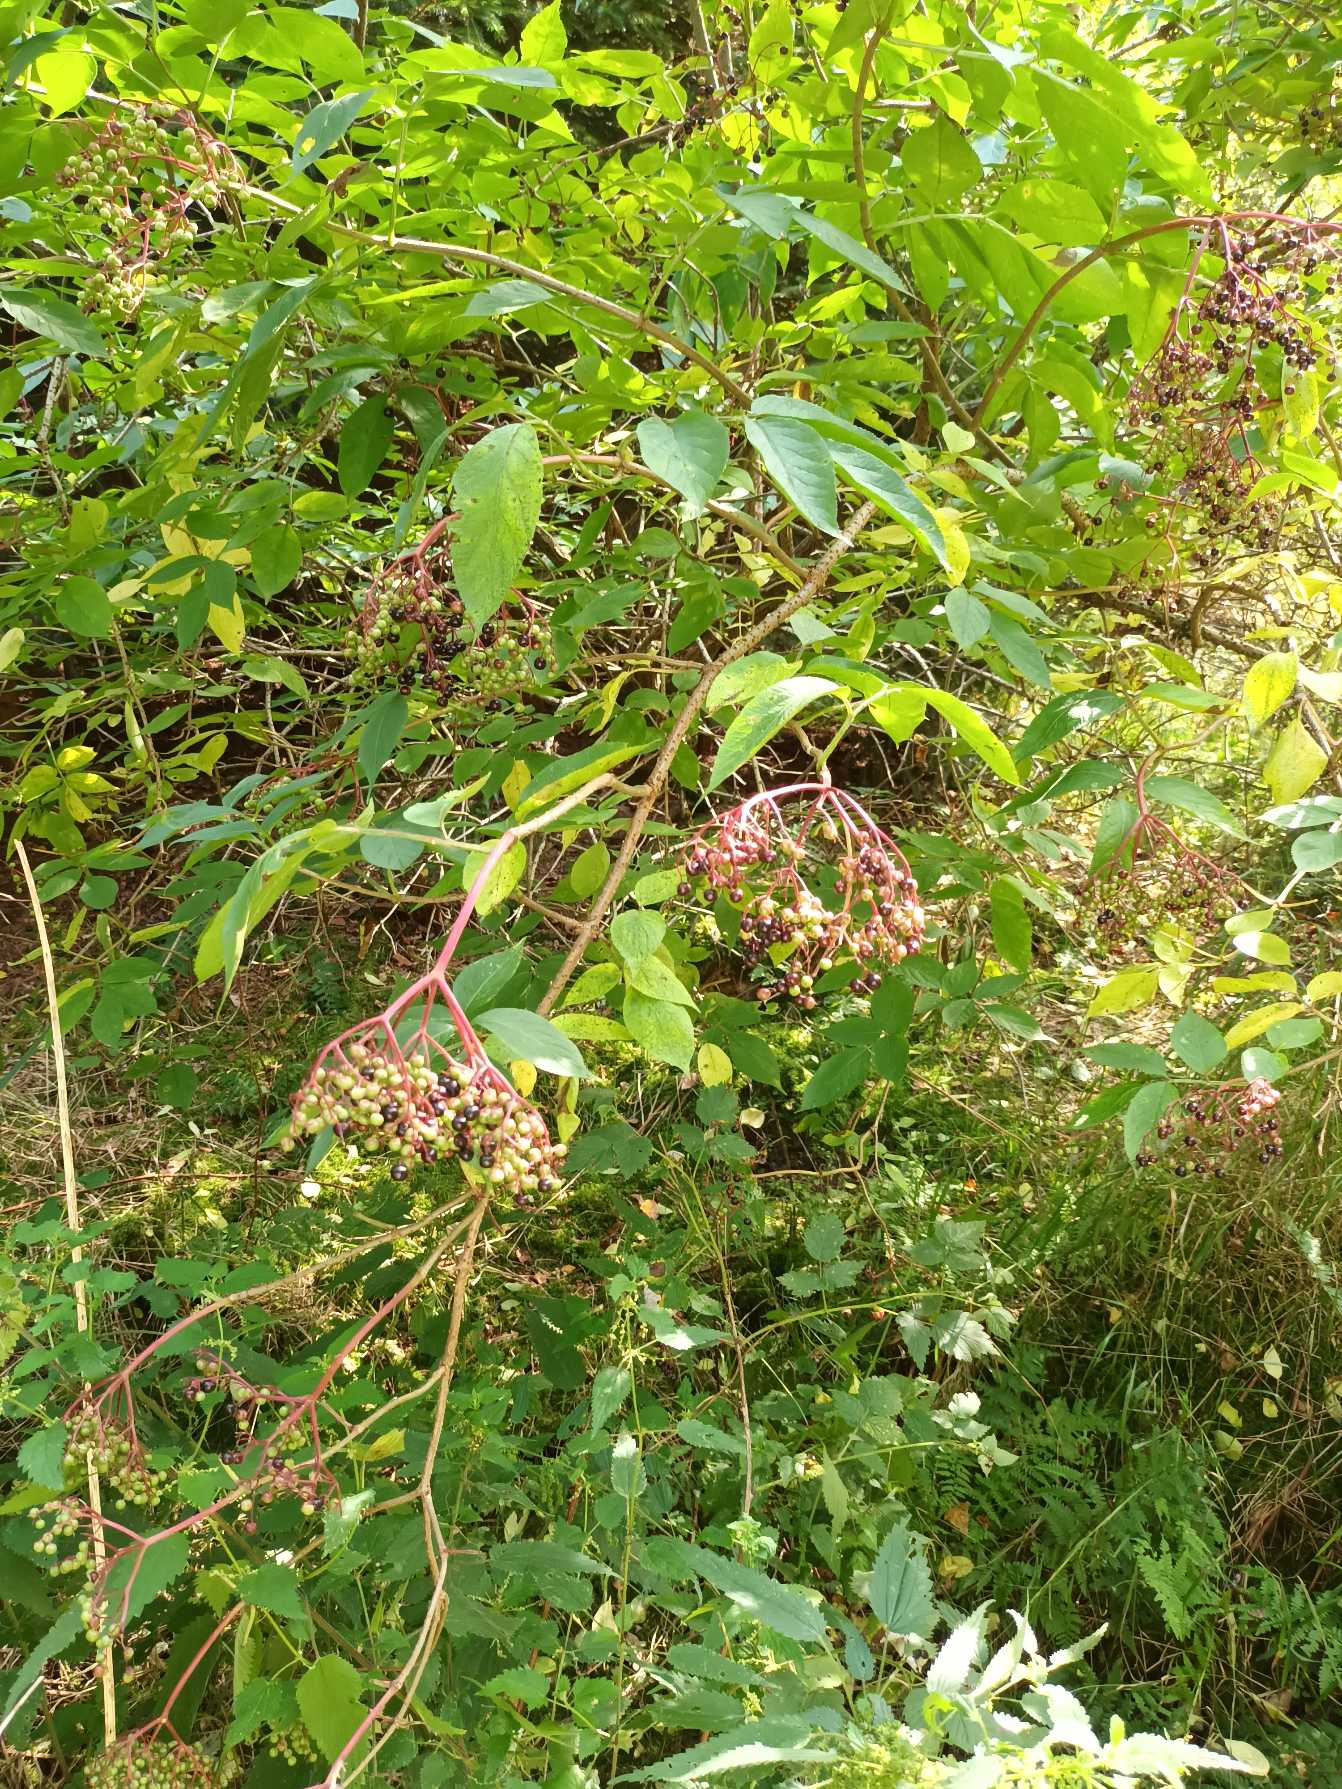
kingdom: Plantae
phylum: Tracheophyta
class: Magnoliopsida
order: Dipsacales
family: Viburnaceae
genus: Sambucus
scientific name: Sambucus nigra
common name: Almindelig hyld
